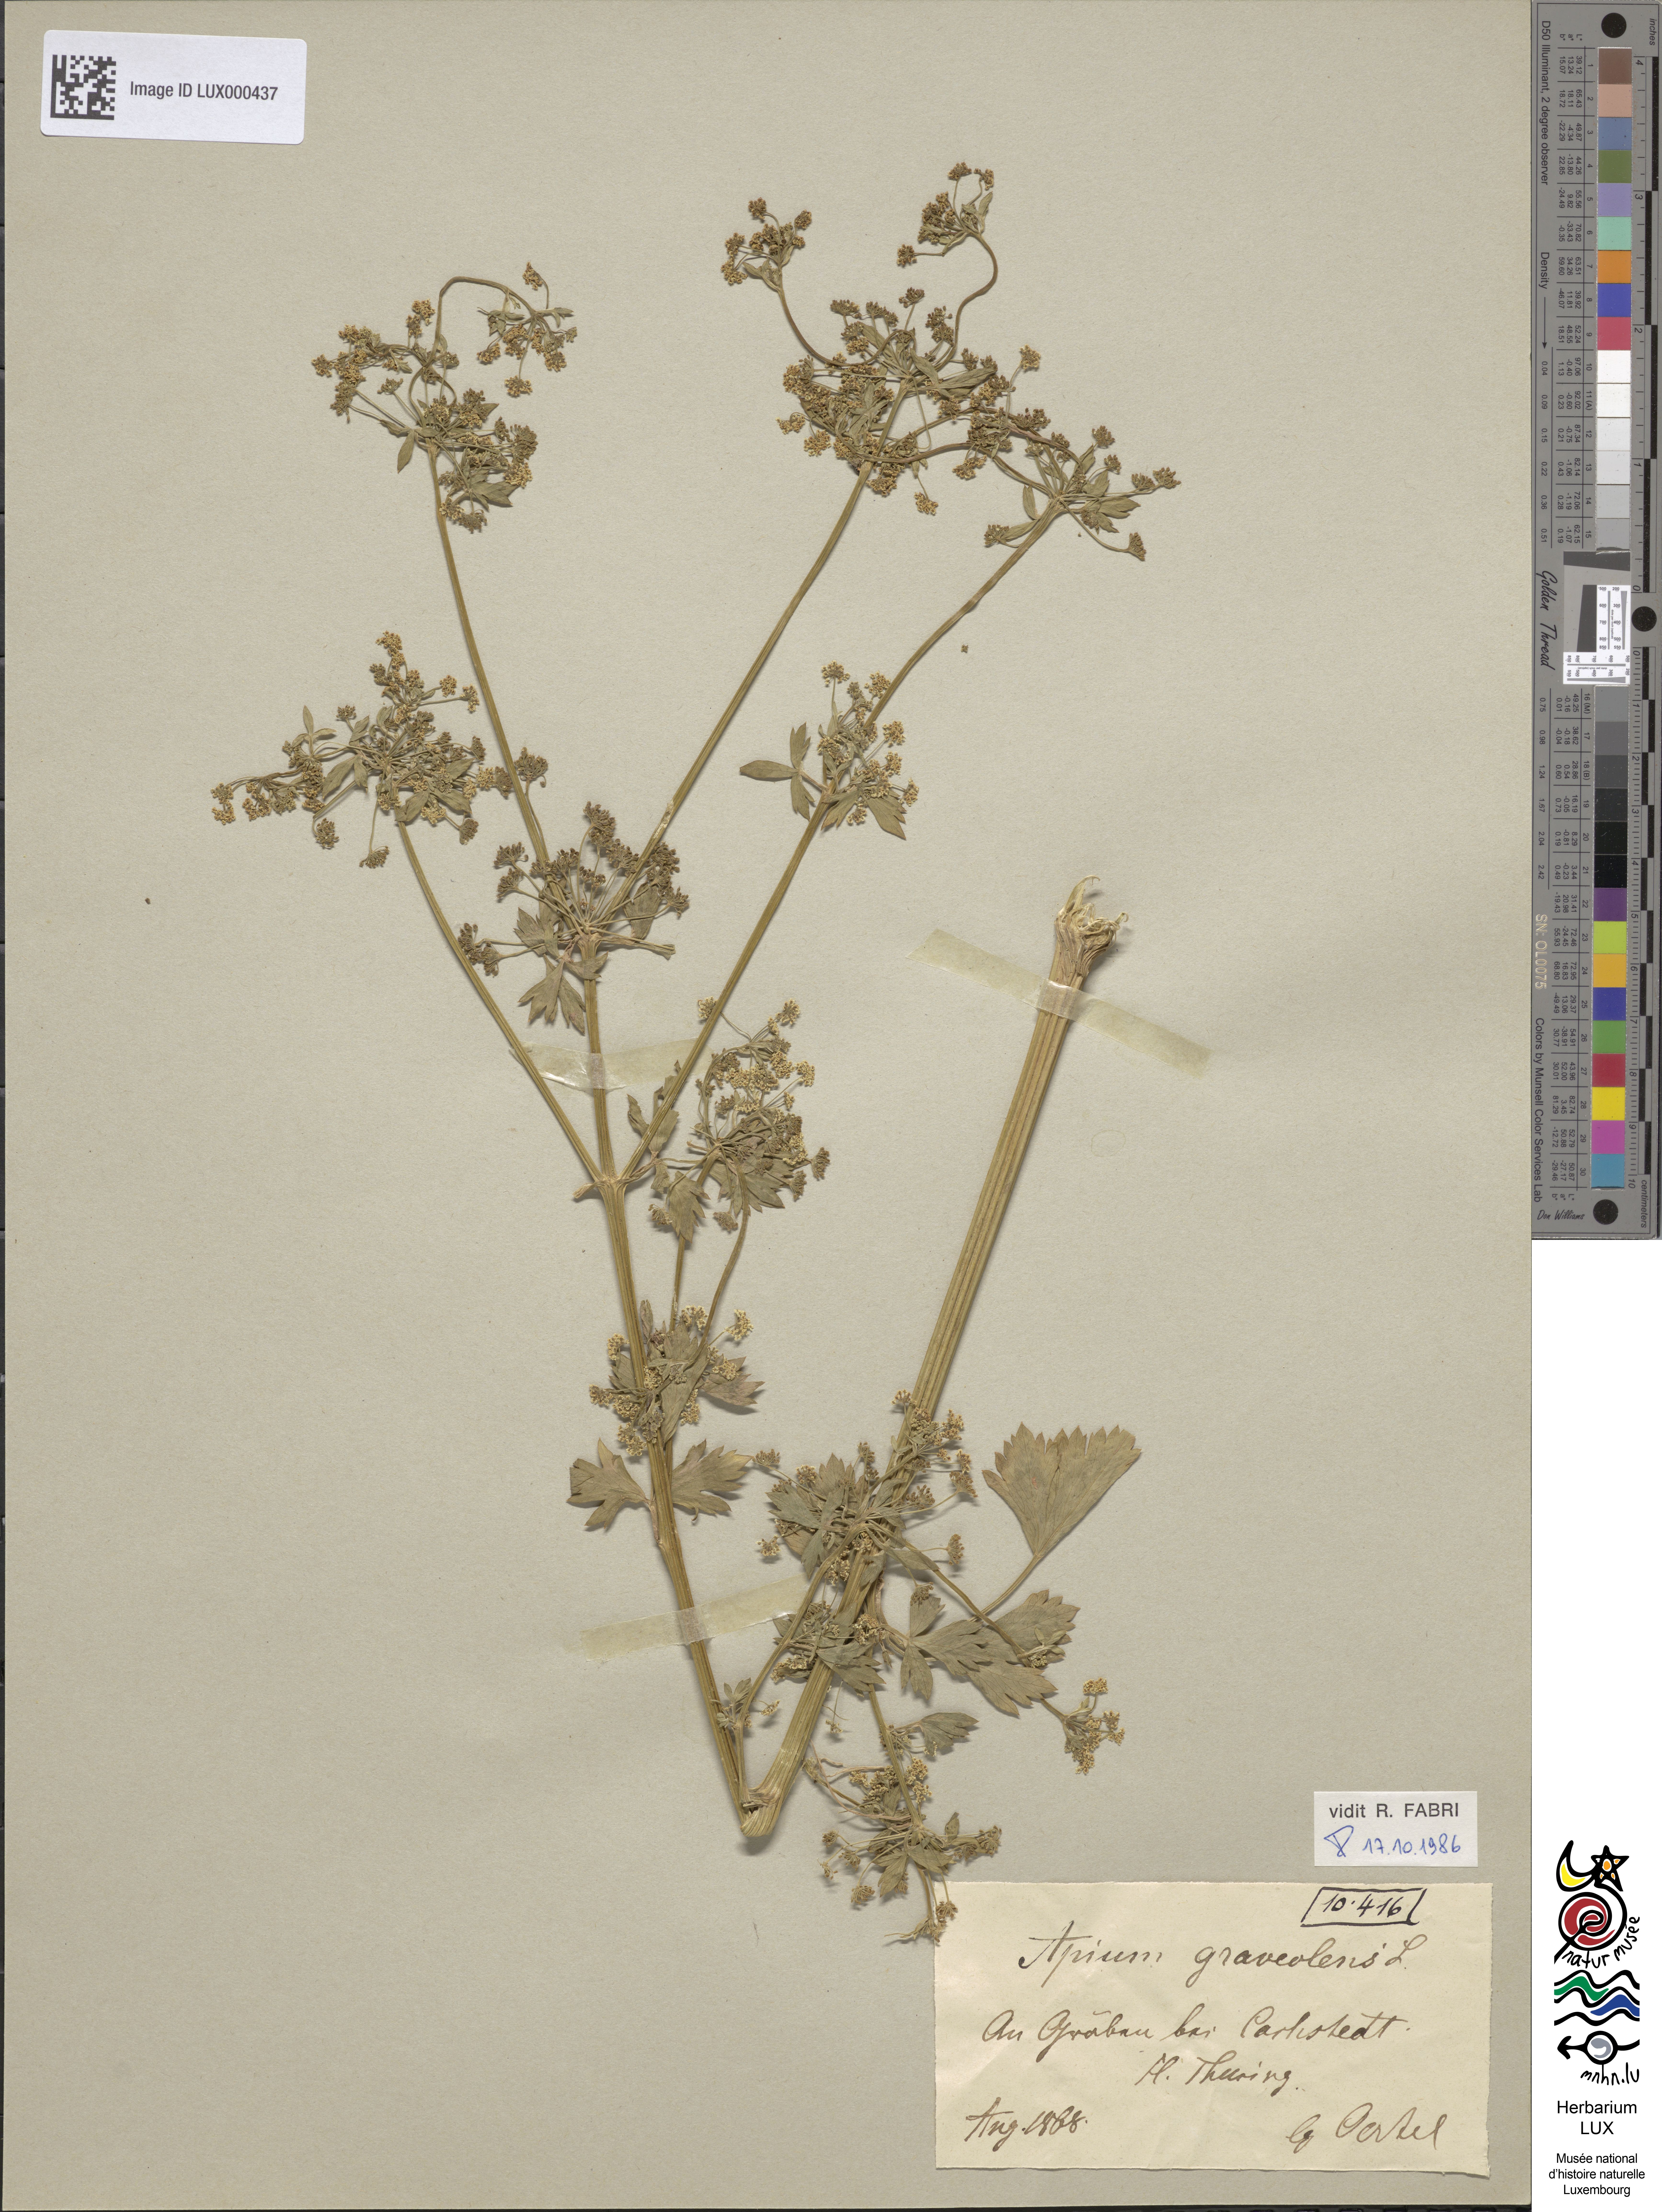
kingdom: Plantae
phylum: Tracheophyta
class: Magnoliopsida
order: Apiales
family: Apiaceae
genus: Apium
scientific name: Apium graveolens
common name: Wild celery
